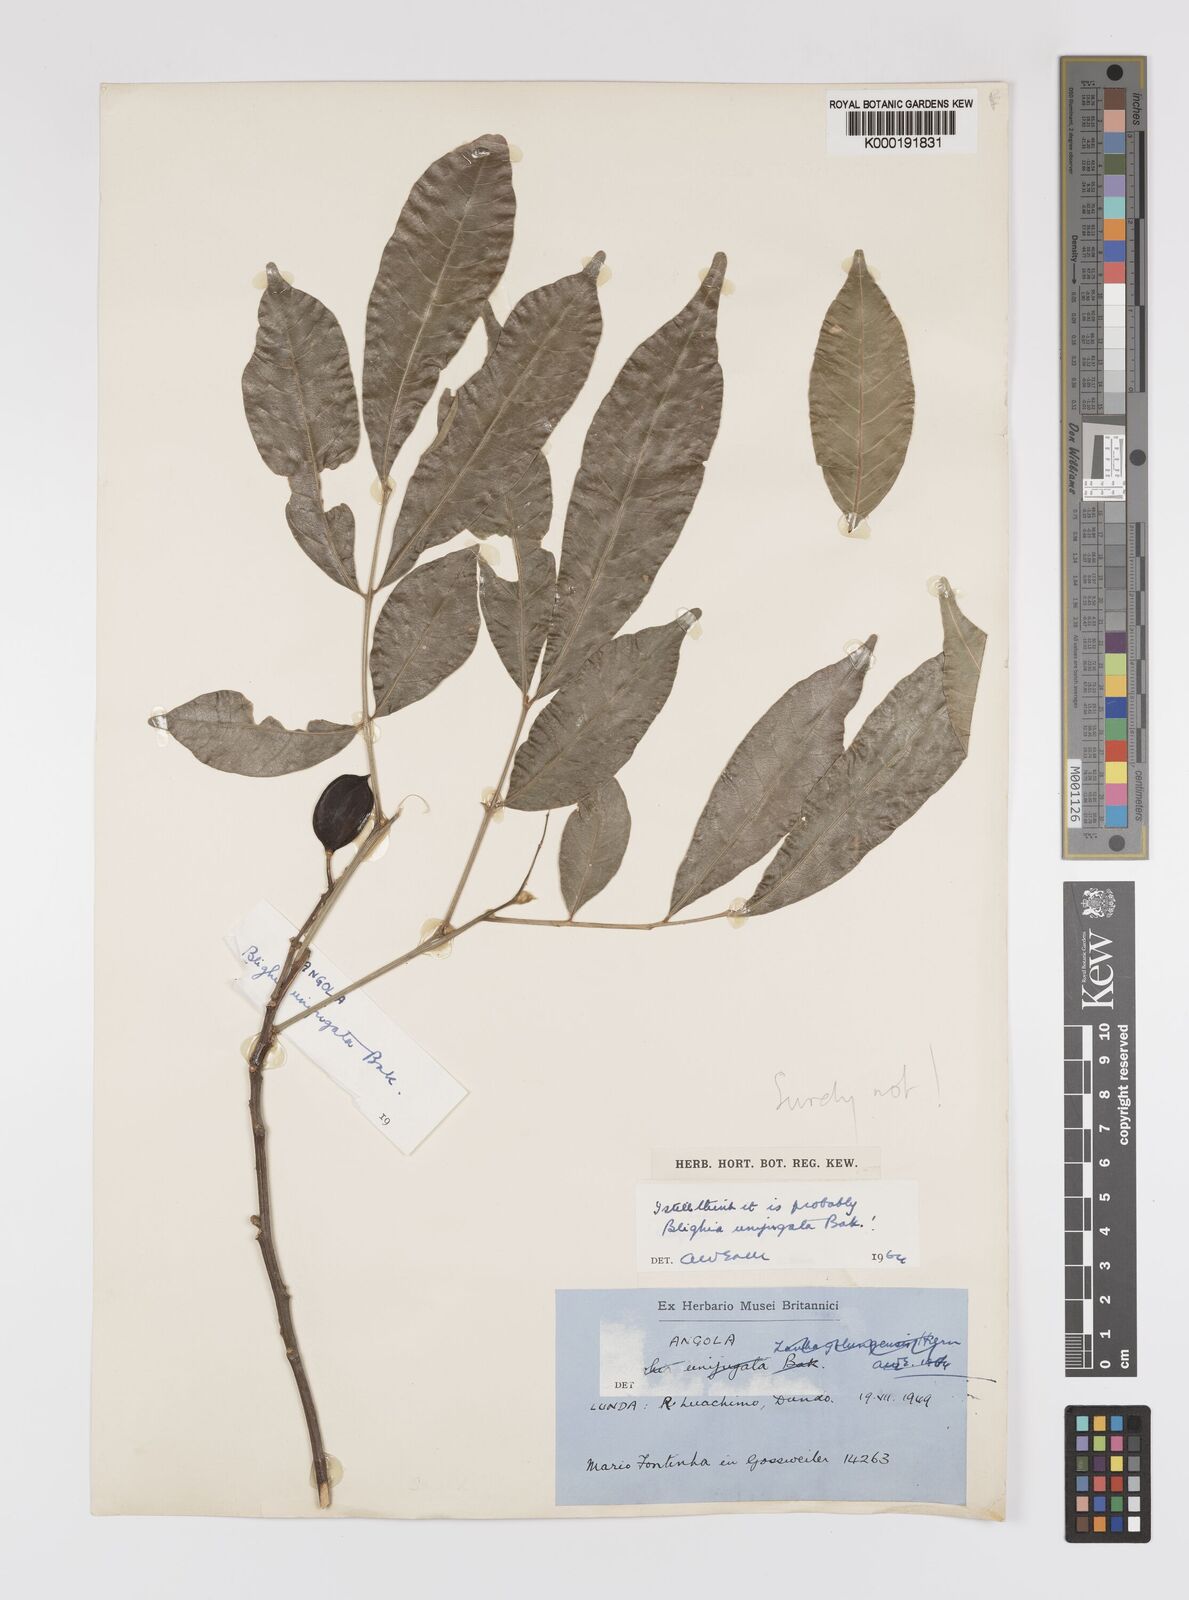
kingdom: Plantae
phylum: Tracheophyta
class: Magnoliopsida
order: Sapindales
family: Sapindaceae
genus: Blighia
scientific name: Blighia unijugata
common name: Triangle tops
